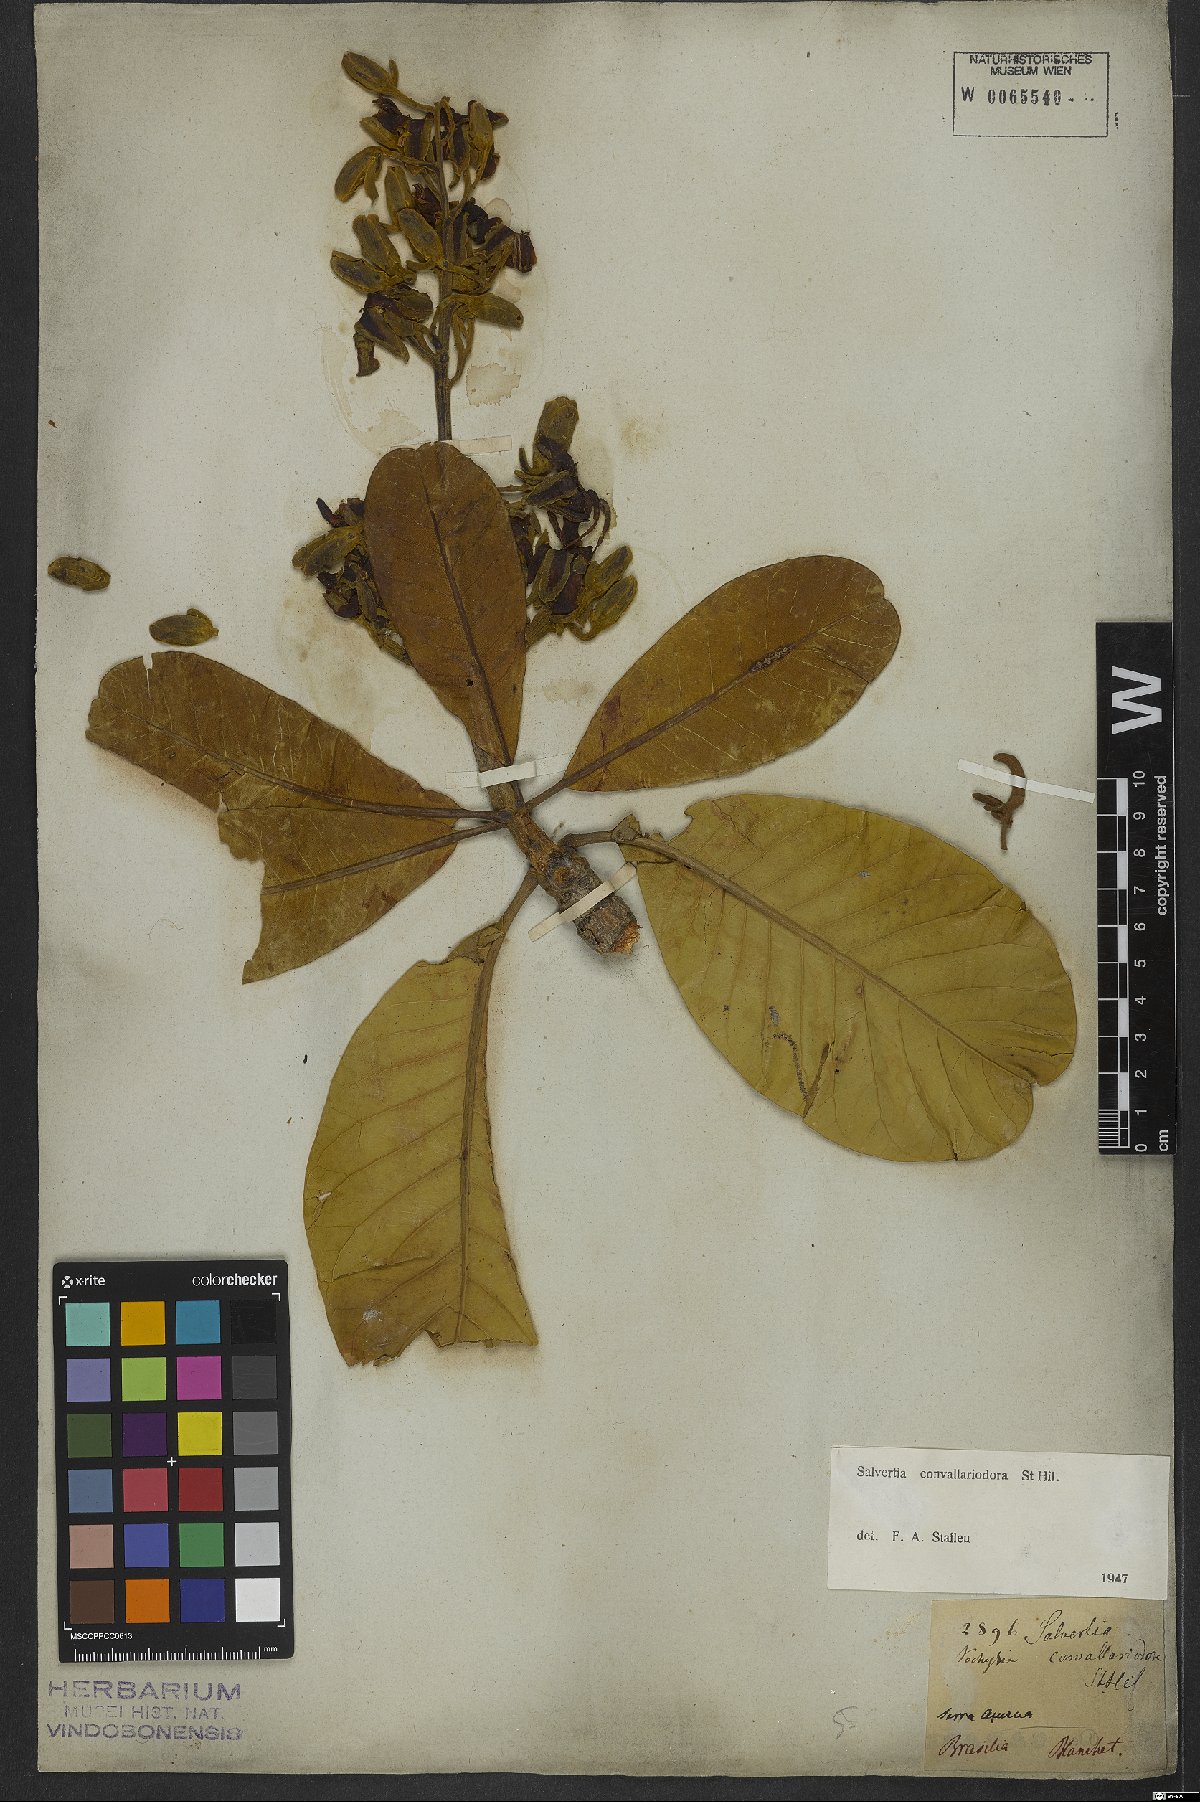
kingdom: Plantae
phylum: Tracheophyta
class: Magnoliopsida
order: Myrtales
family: Vochysiaceae
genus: Salvertia
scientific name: Salvertia convallariodora
